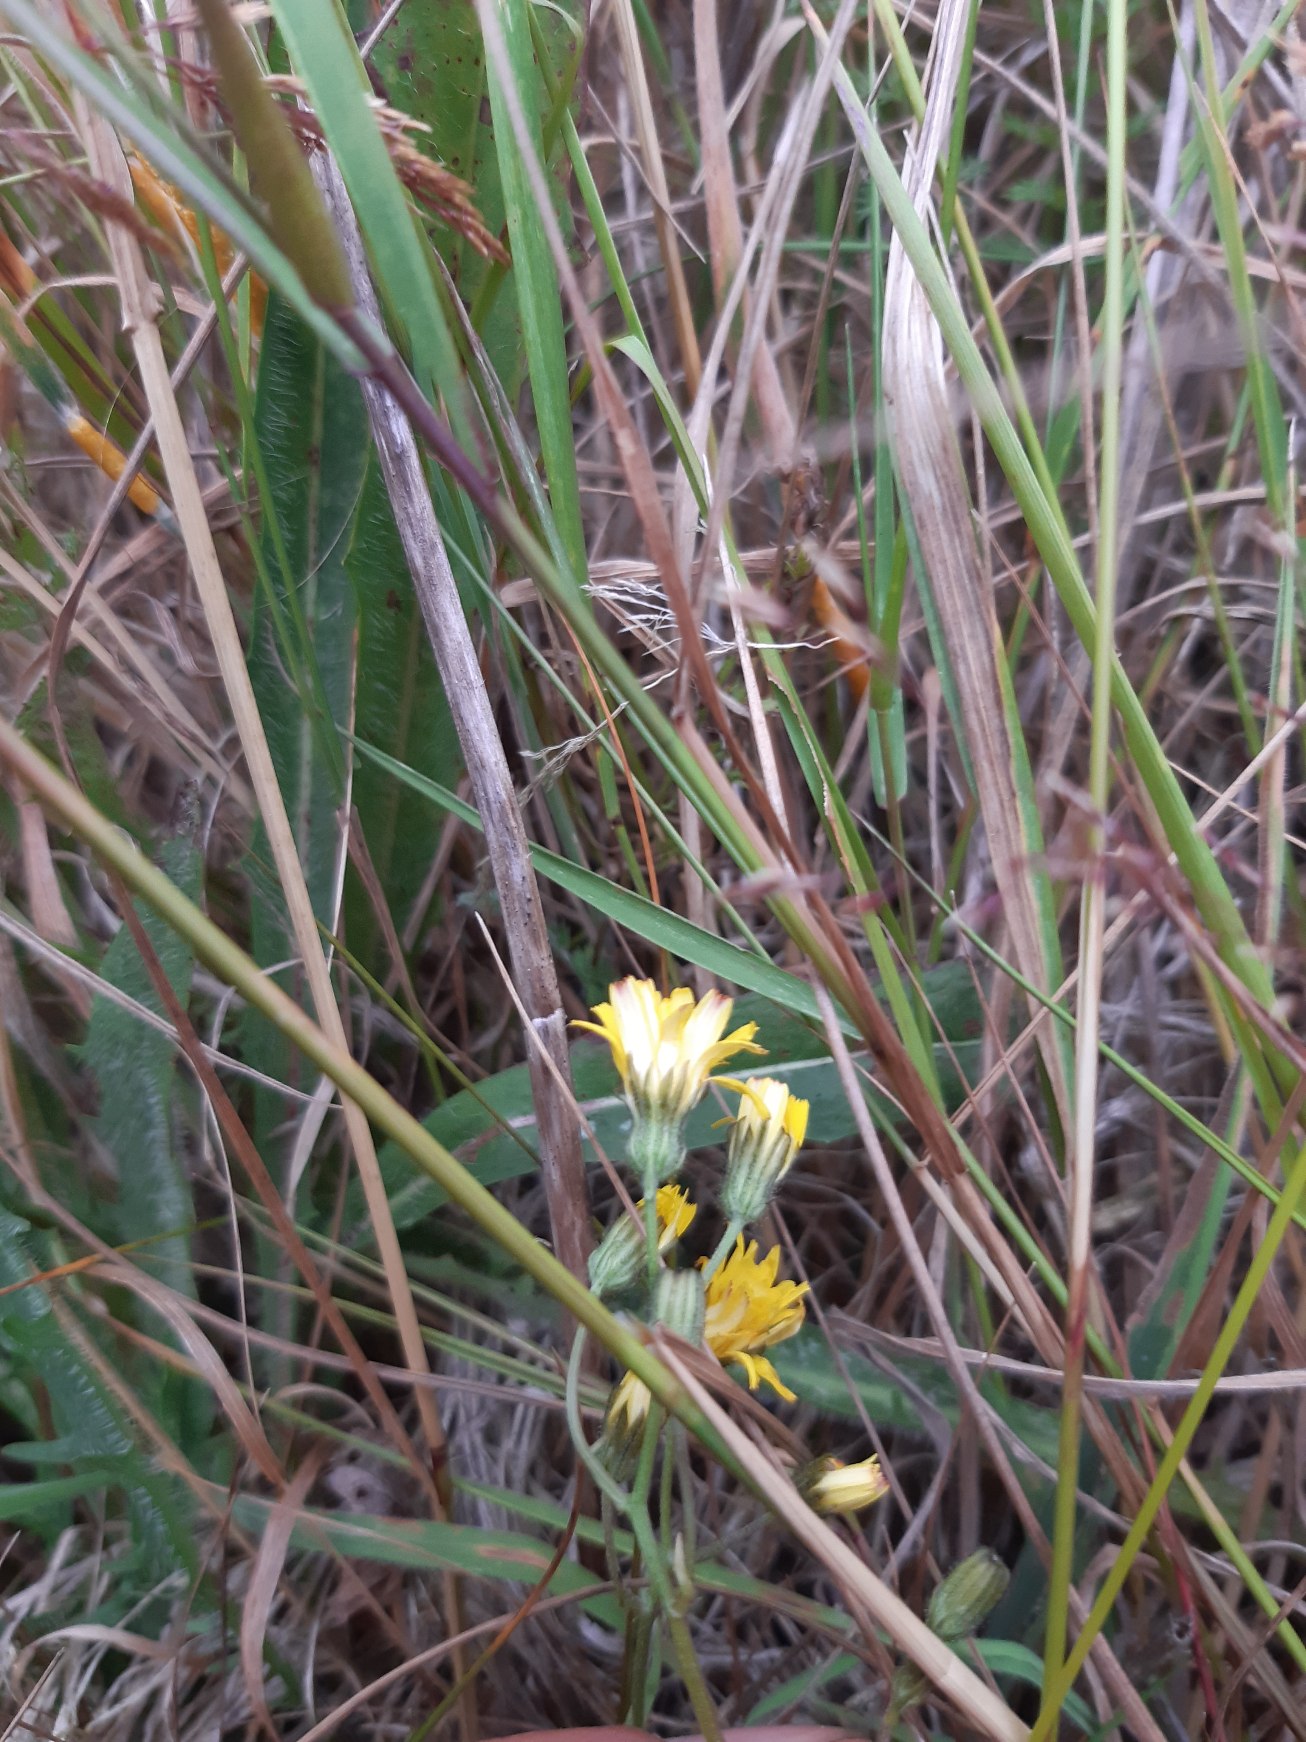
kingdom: Plantae
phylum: Tracheophyta
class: Magnoliopsida
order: Asterales
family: Asteraceae
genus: Crepis
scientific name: Crepis capillaris
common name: Grøn høgeskæg
